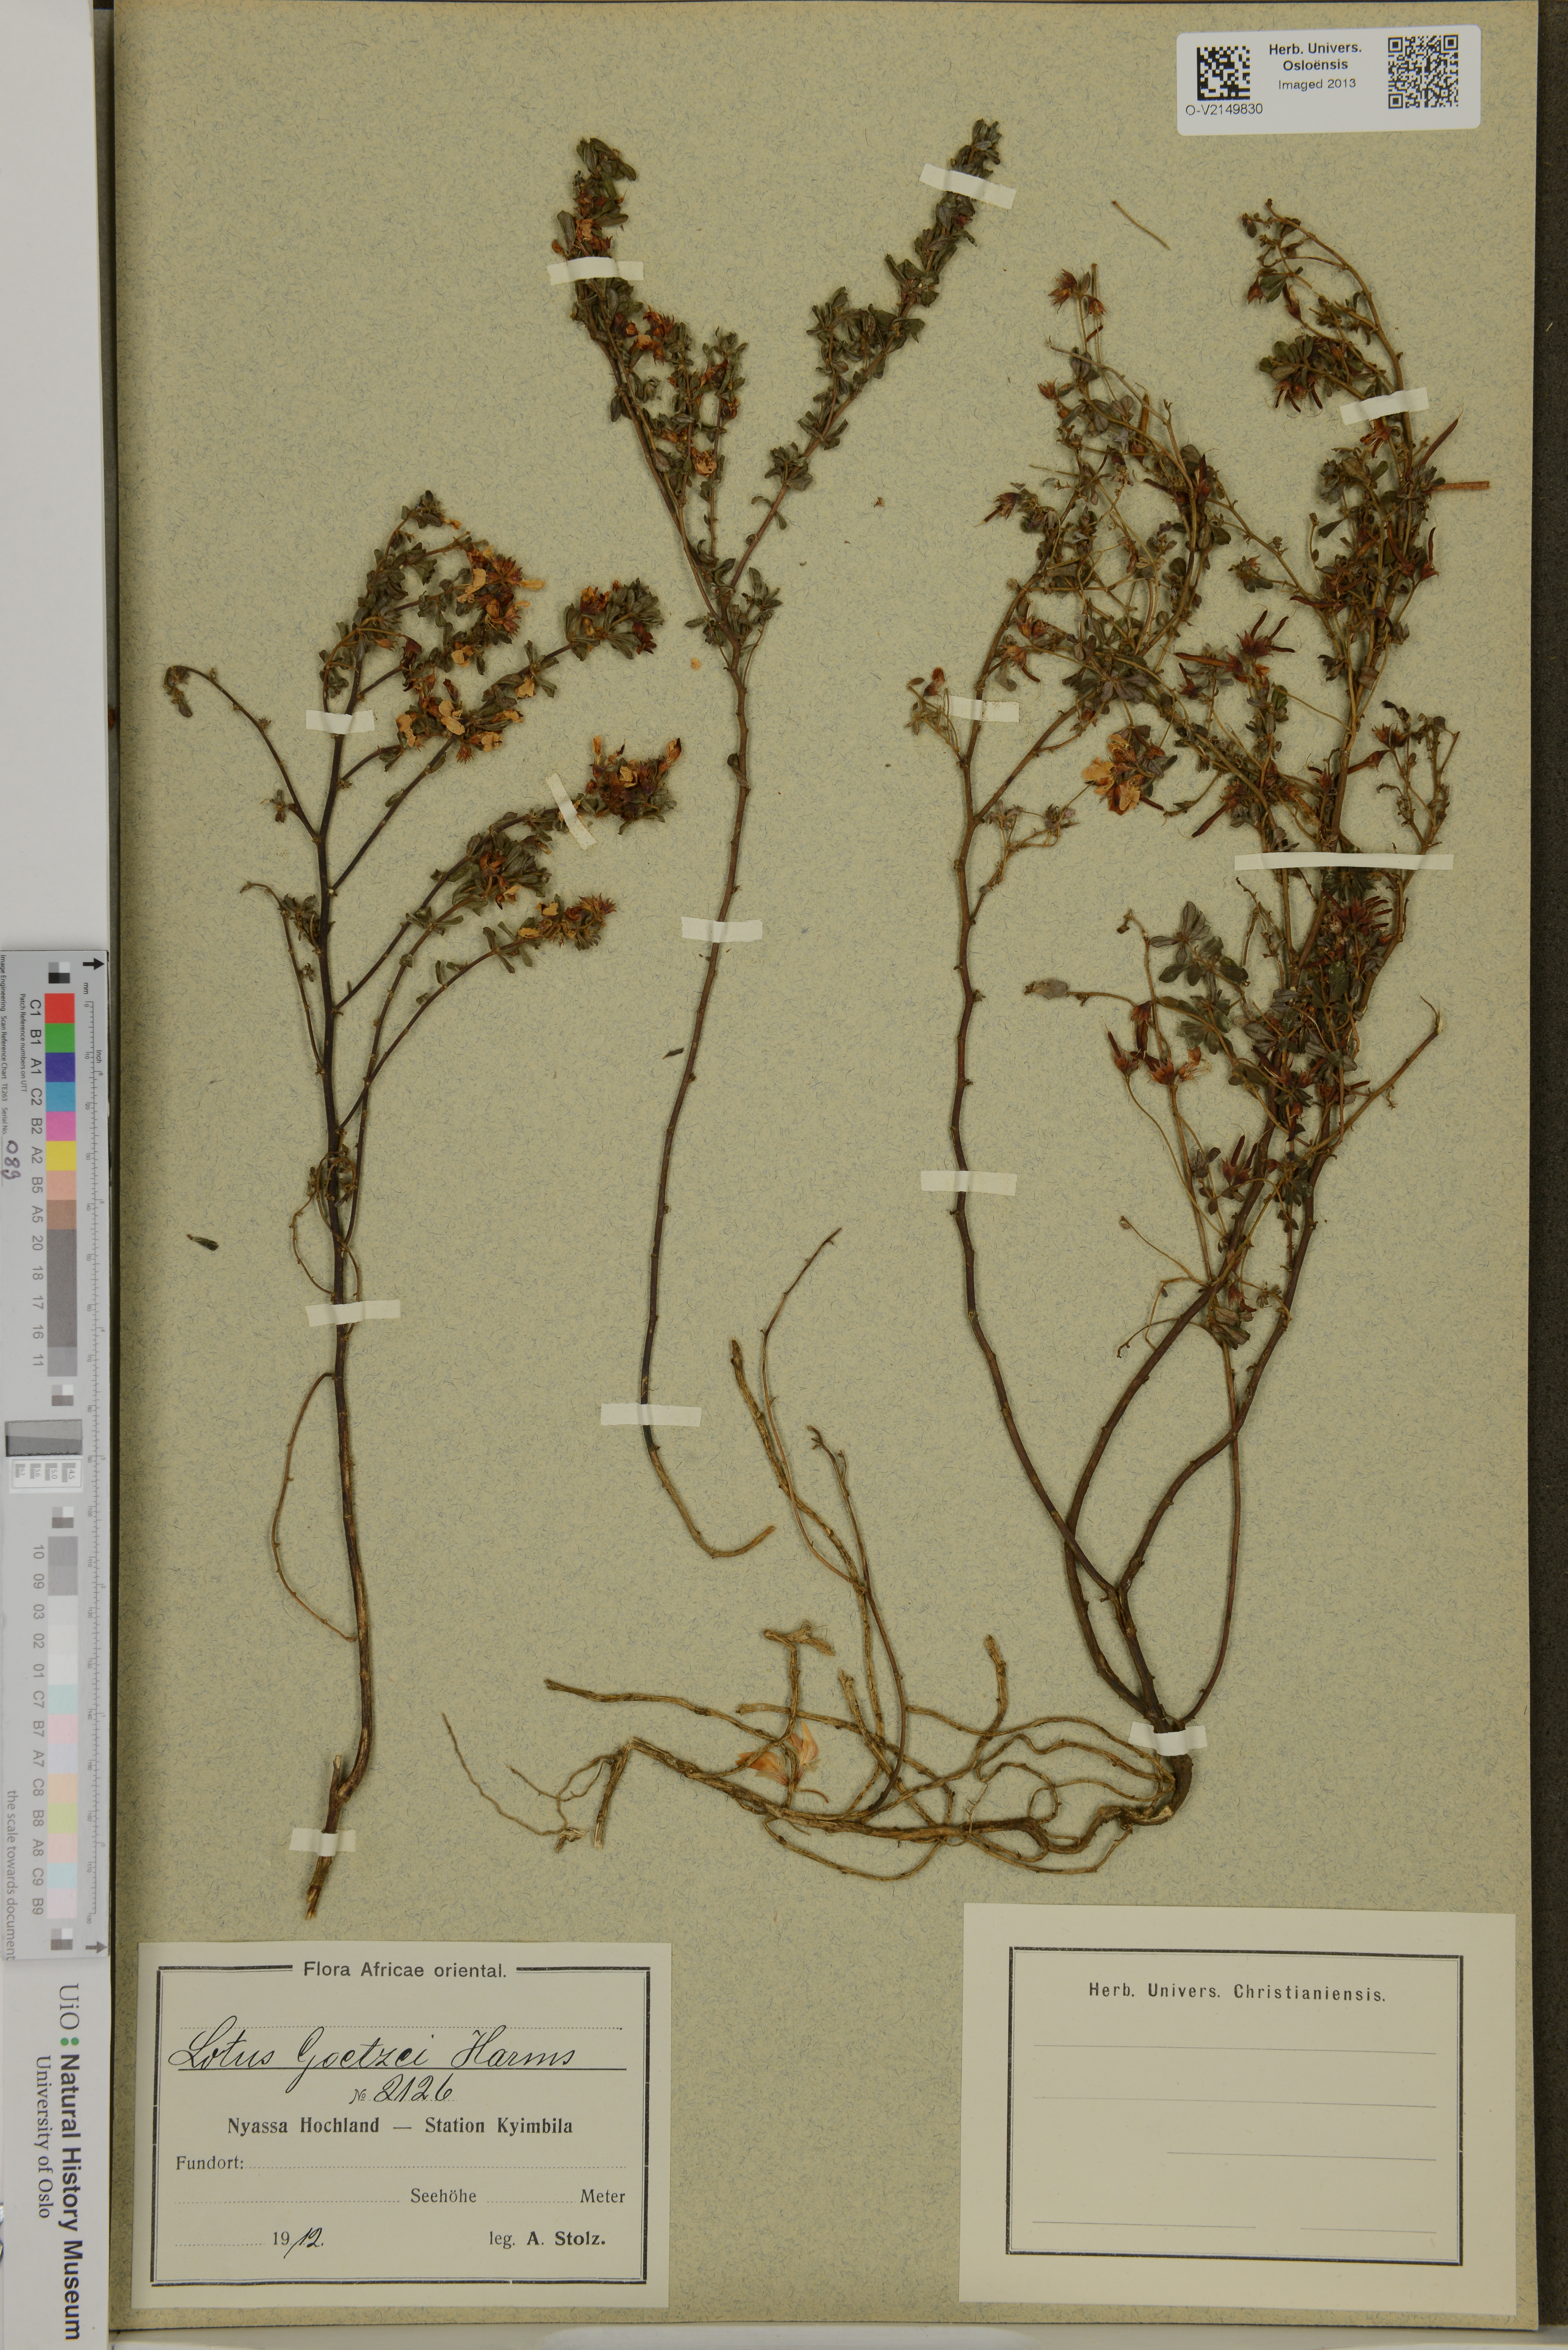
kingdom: Plantae
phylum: Tracheophyta
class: Magnoliopsida
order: Fabales
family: Fabaceae
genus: Lotus
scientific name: Lotus goetzei
